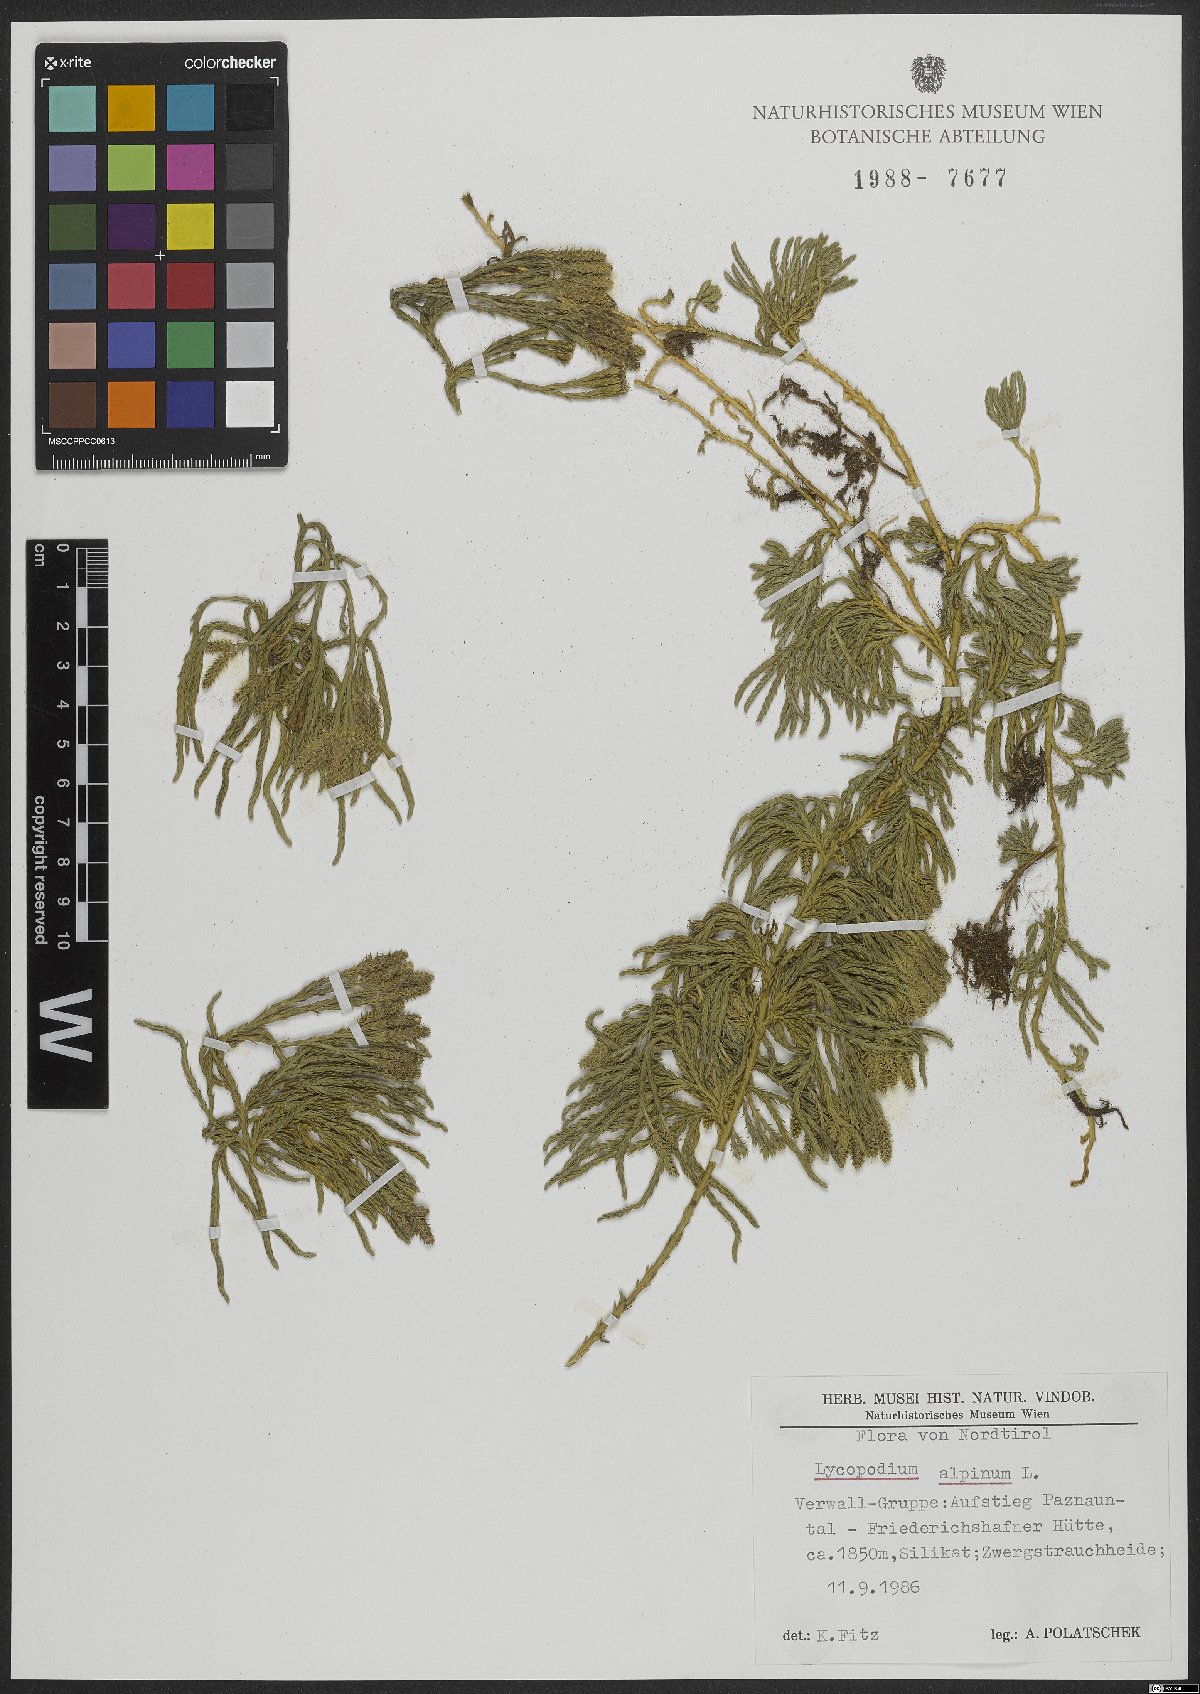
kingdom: Plantae
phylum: Tracheophyta
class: Lycopodiopsida
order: Lycopodiales
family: Lycopodiaceae
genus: Diphasiastrum
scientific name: Diphasiastrum alpinum
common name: Alpine clubmoss
